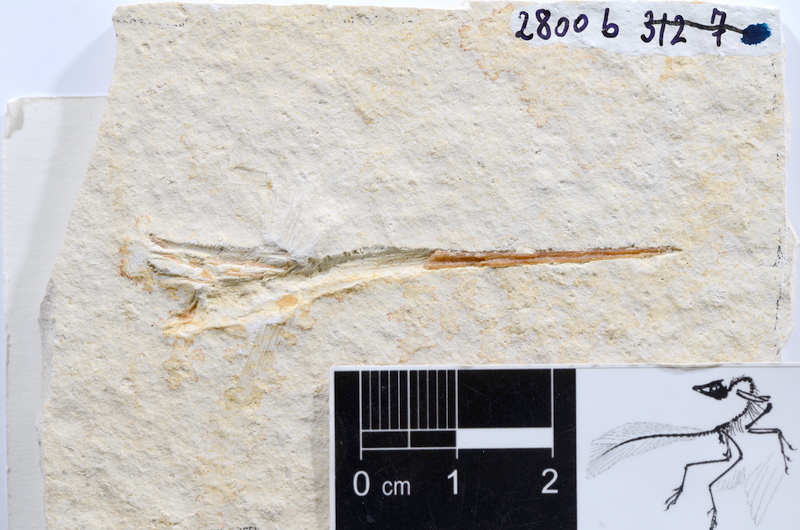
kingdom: Animalia
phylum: Chordata
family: Aspidorhynchidae
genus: Aspidorhynchus
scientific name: Aspidorhynchus
